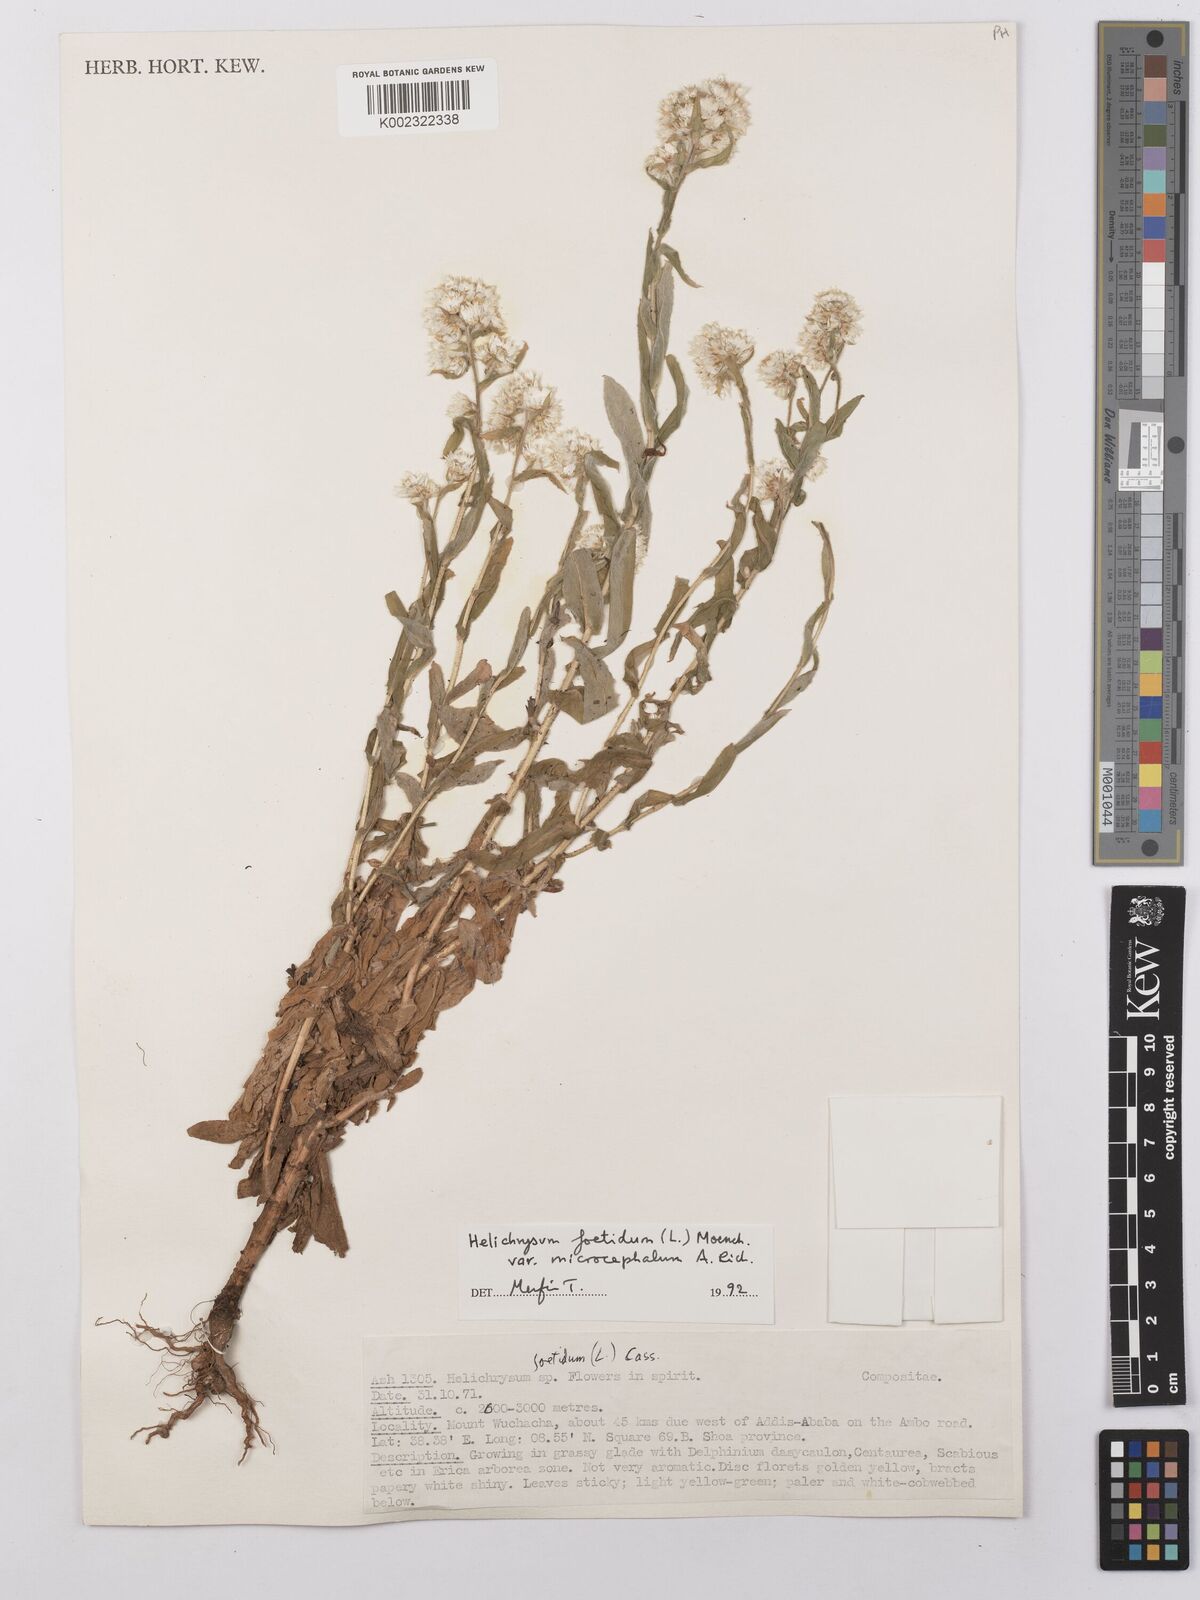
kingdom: Plantae
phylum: Tracheophyta
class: Magnoliopsida
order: Asterales
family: Asteraceae
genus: Helichrysum
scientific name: Helichrysum foetidum
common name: Stinking everlasting
